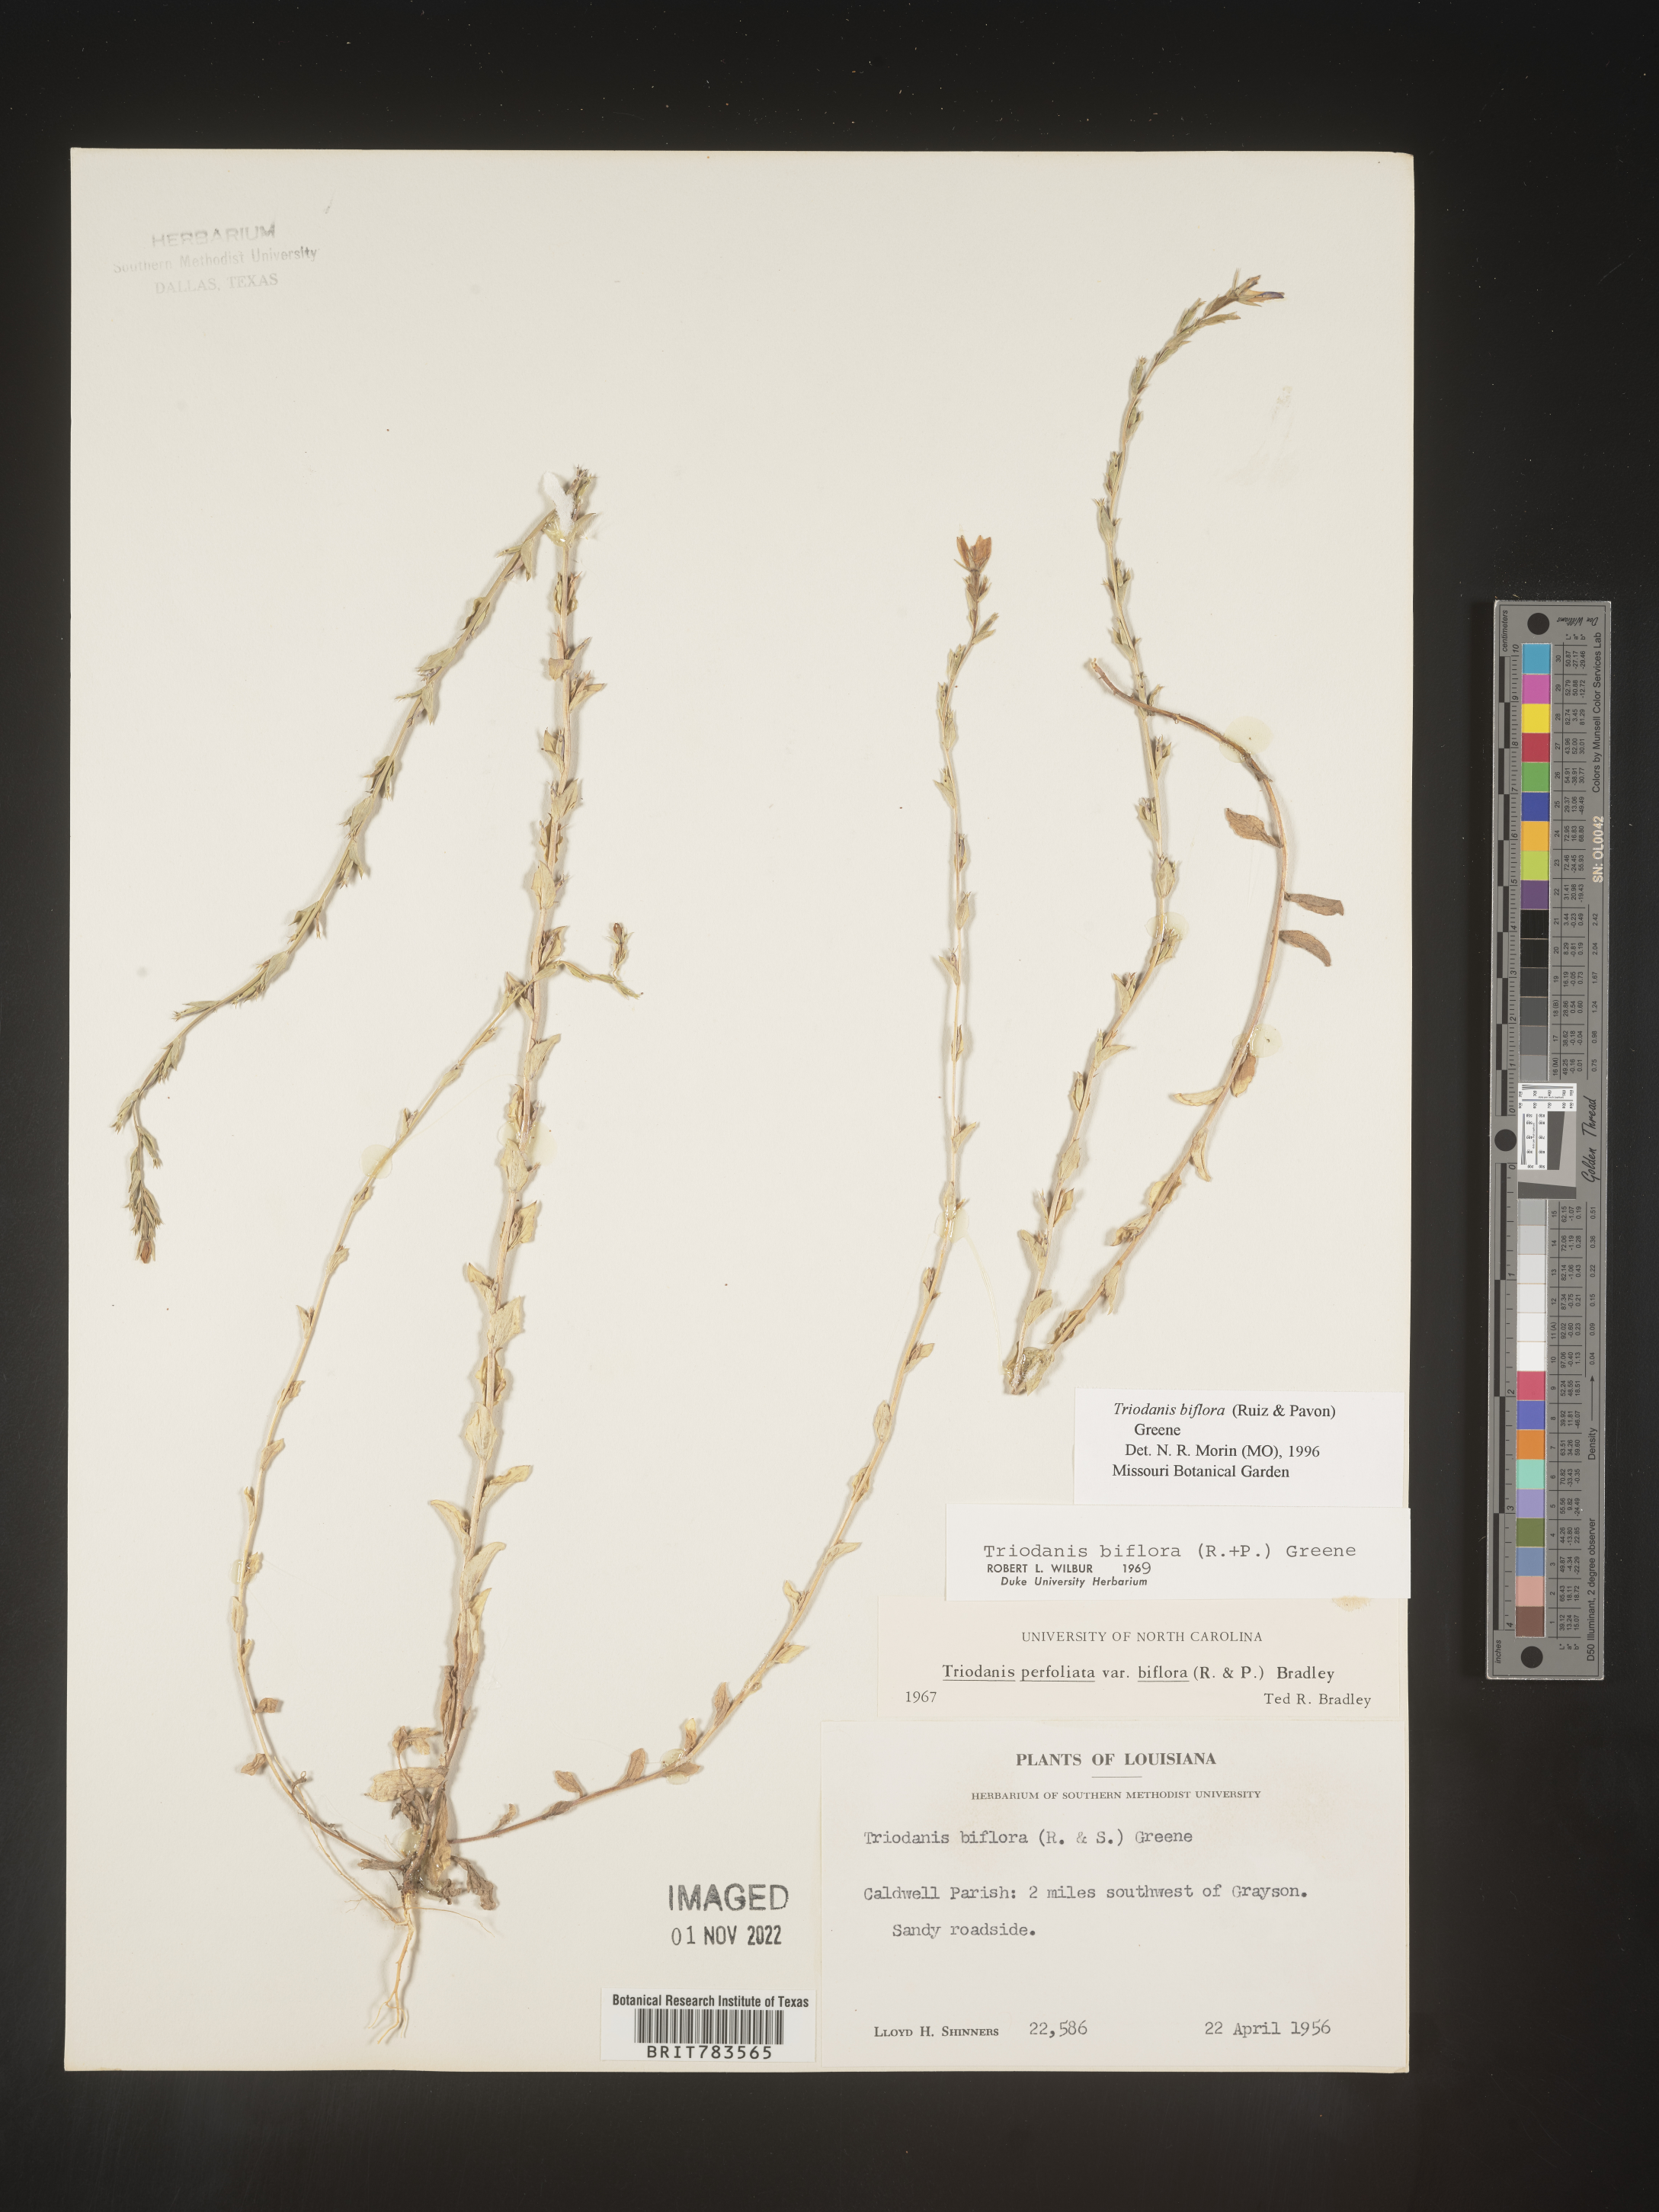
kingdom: Plantae
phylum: Tracheophyta
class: Magnoliopsida
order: Asterales
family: Campanulaceae
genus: Triodanis
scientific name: Triodanis perfoliata
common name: Clasping venus' looking-glass
